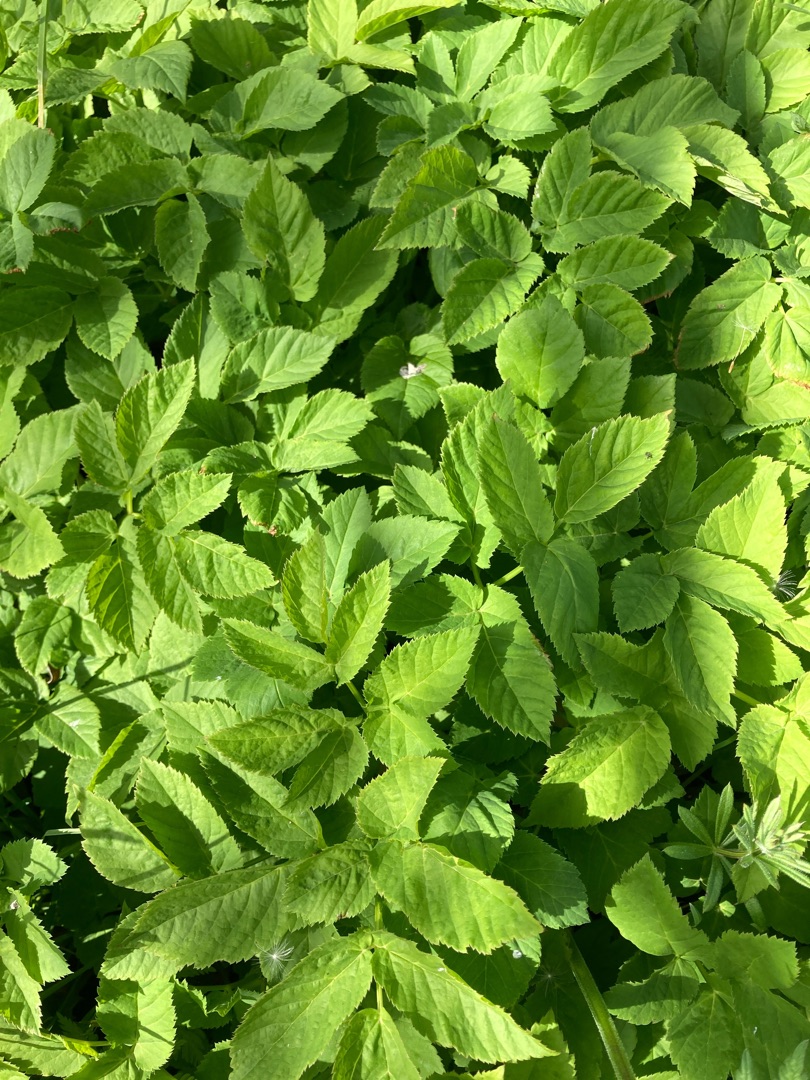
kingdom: Plantae
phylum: Tracheophyta
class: Magnoliopsida
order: Apiales
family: Apiaceae
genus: Aegopodium
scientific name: Aegopodium podagraria
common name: Skvalderkål
